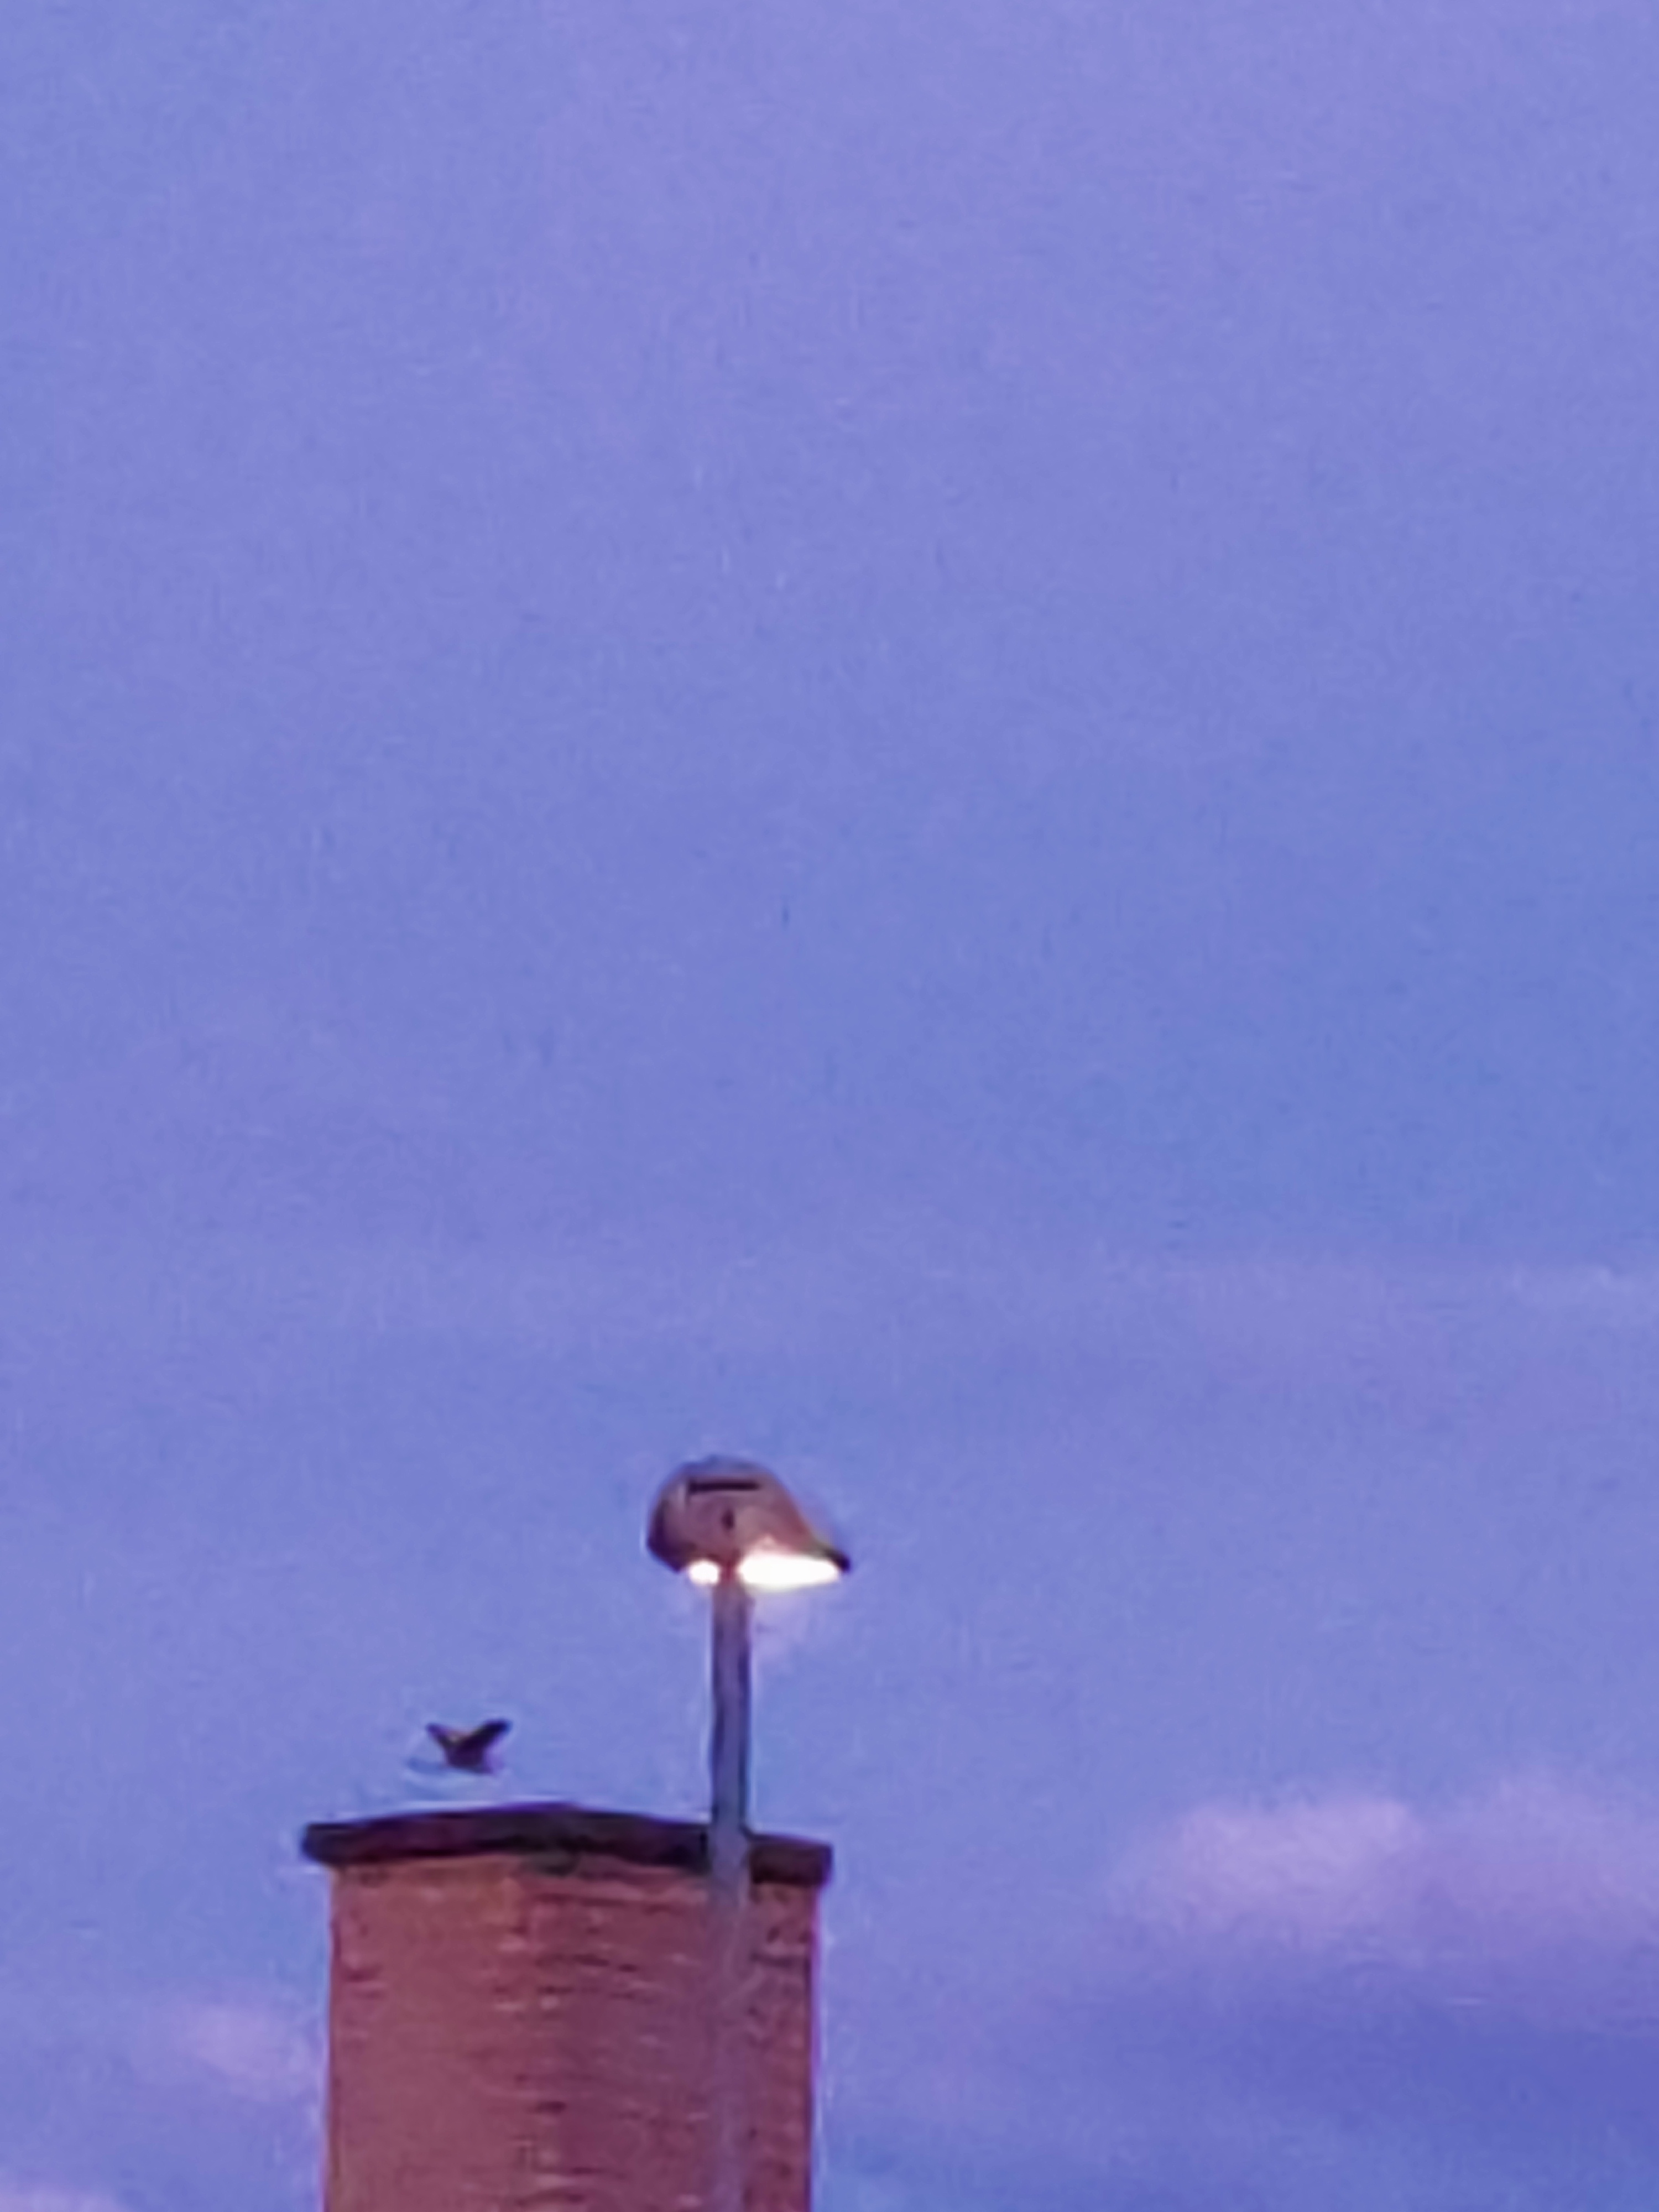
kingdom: Animalia
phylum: Chordata
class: Aves
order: Pelecaniformes
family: Ardeidae
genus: Ardea
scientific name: Ardea cinerea
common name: Fiskehejre
